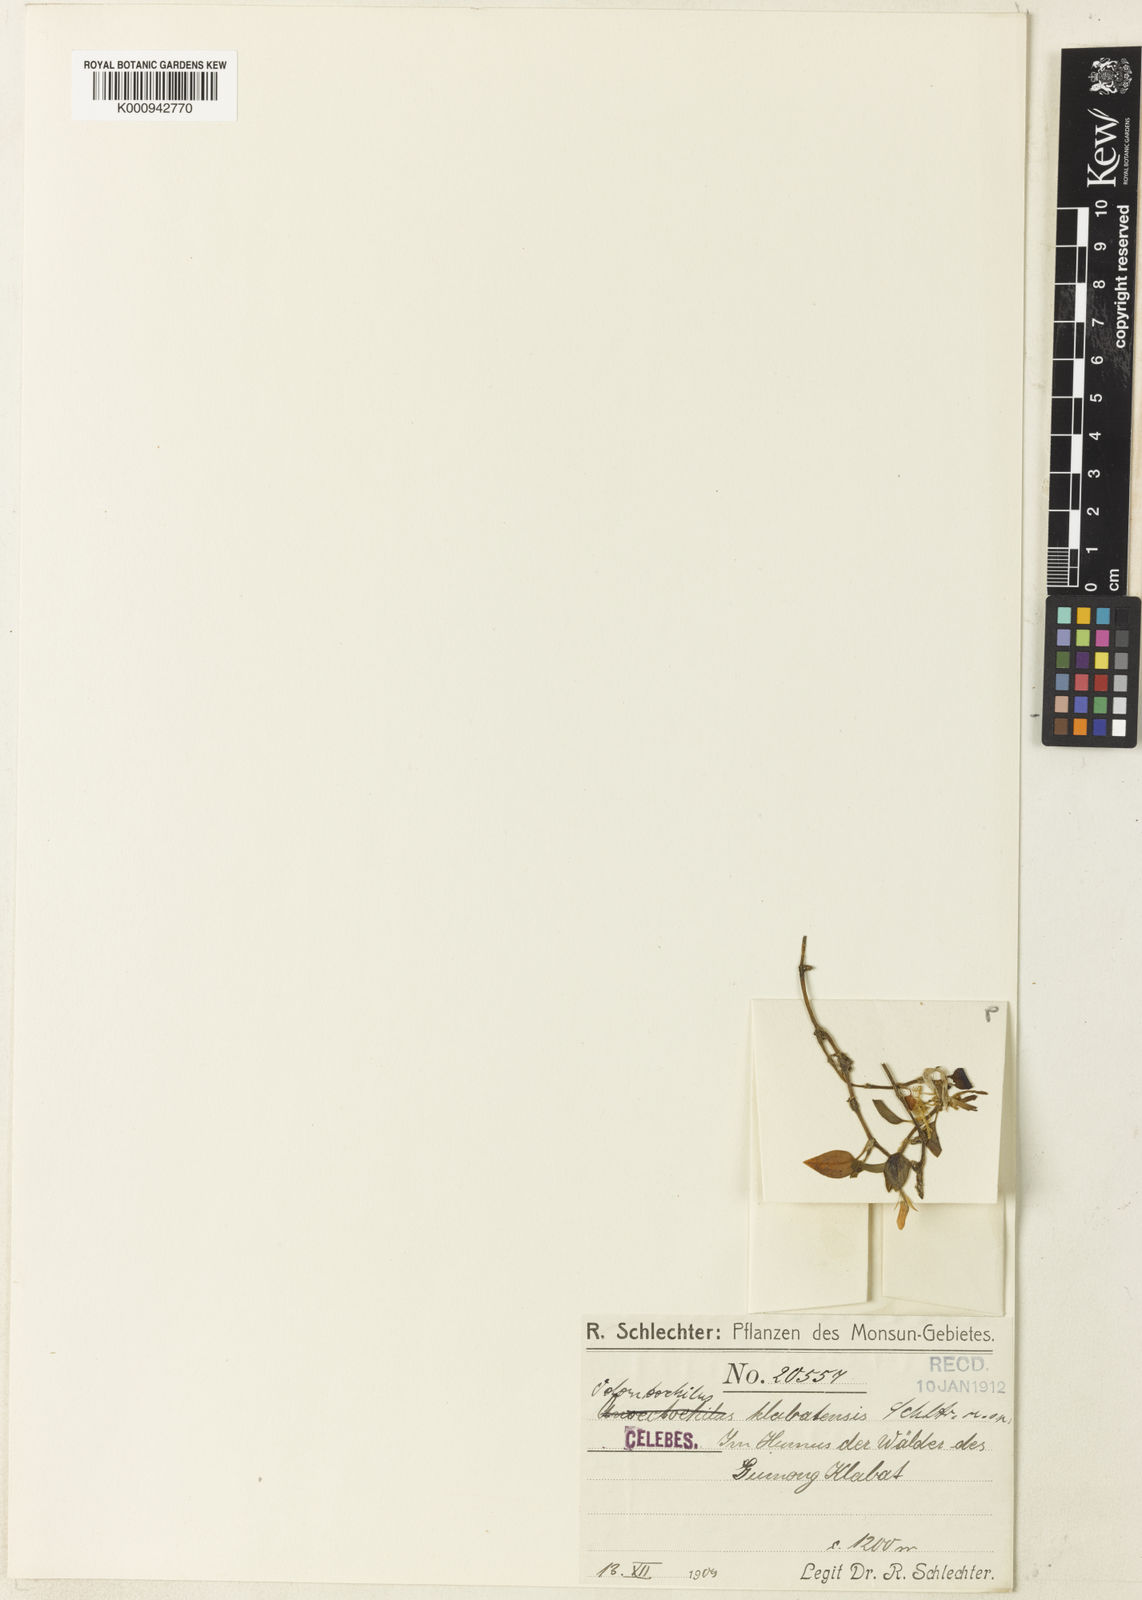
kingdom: Plantae
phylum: Tracheophyta
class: Liliopsida
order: Asparagales
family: Orchidaceae
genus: Anoectochilus
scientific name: Anoectochilus klabatensis
